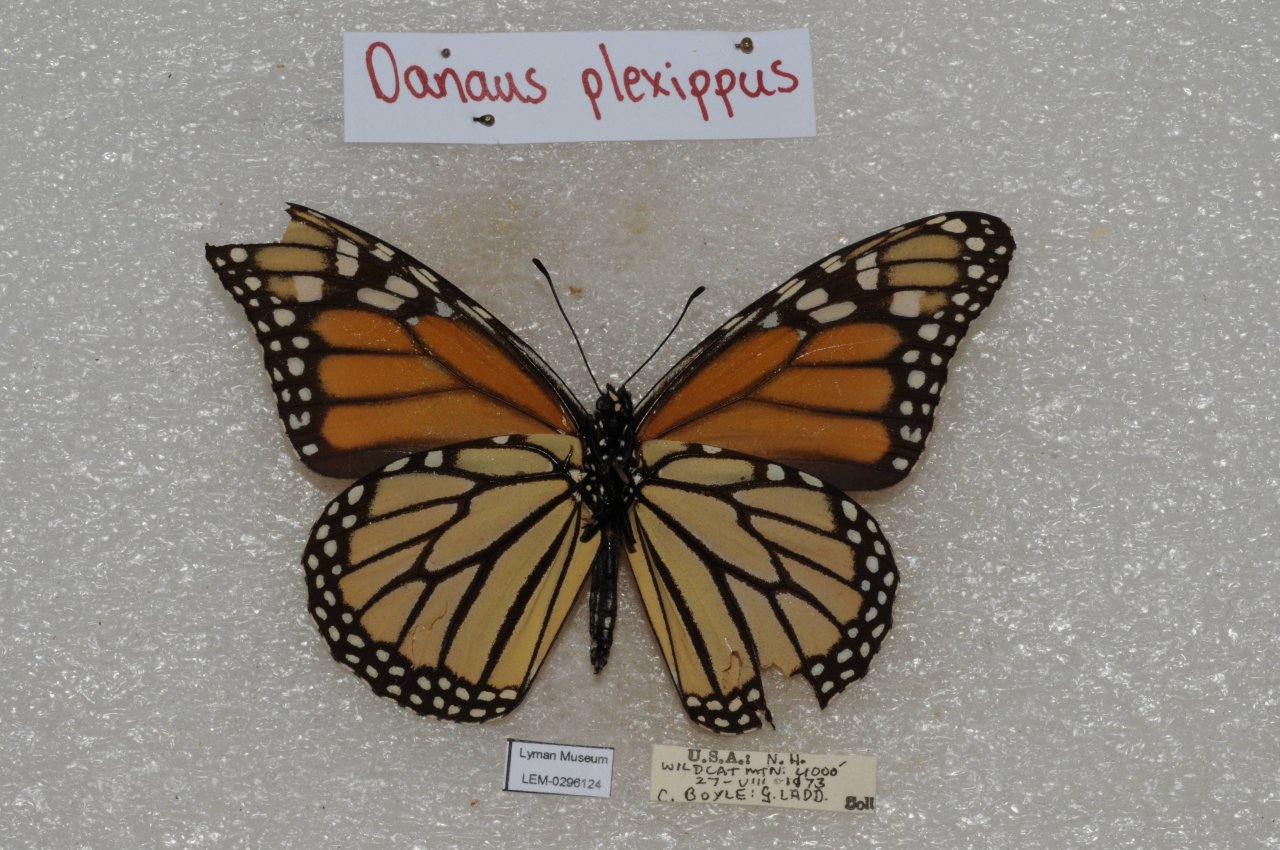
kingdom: Animalia
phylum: Arthropoda
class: Insecta
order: Lepidoptera
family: Nymphalidae
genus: Danaus
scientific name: Danaus plexippus
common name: Monarch
